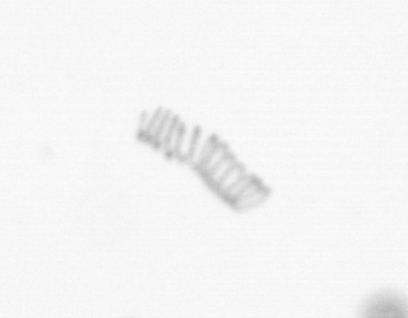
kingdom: Chromista
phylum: Ochrophyta
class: Bacillariophyceae
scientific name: Bacillariophyceae
